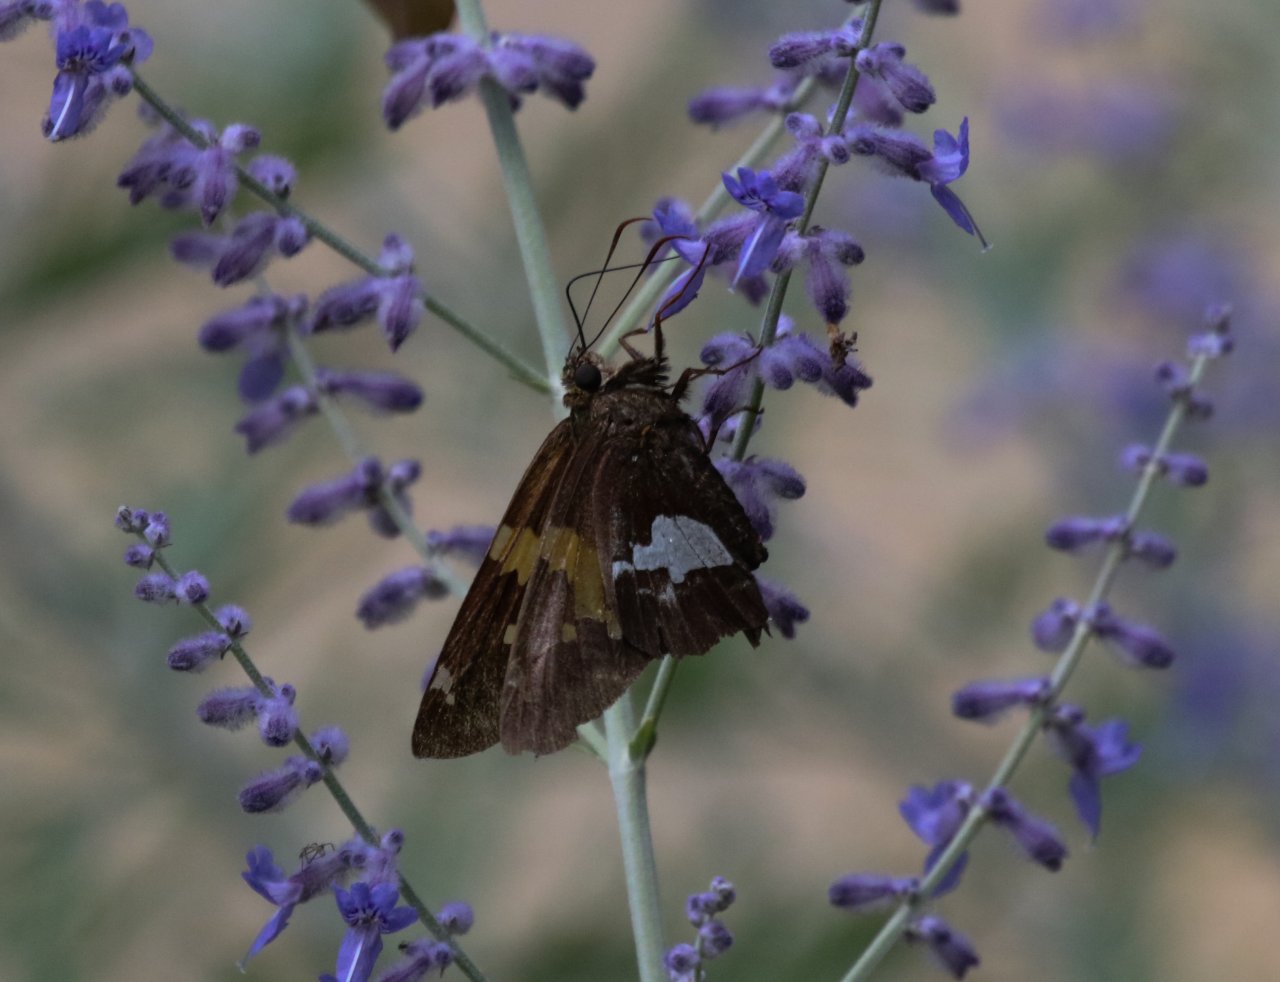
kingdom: Animalia
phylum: Arthropoda
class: Insecta
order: Lepidoptera
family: Hesperiidae
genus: Epargyreus
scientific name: Epargyreus clarus
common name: Silver-spotted Skipper
